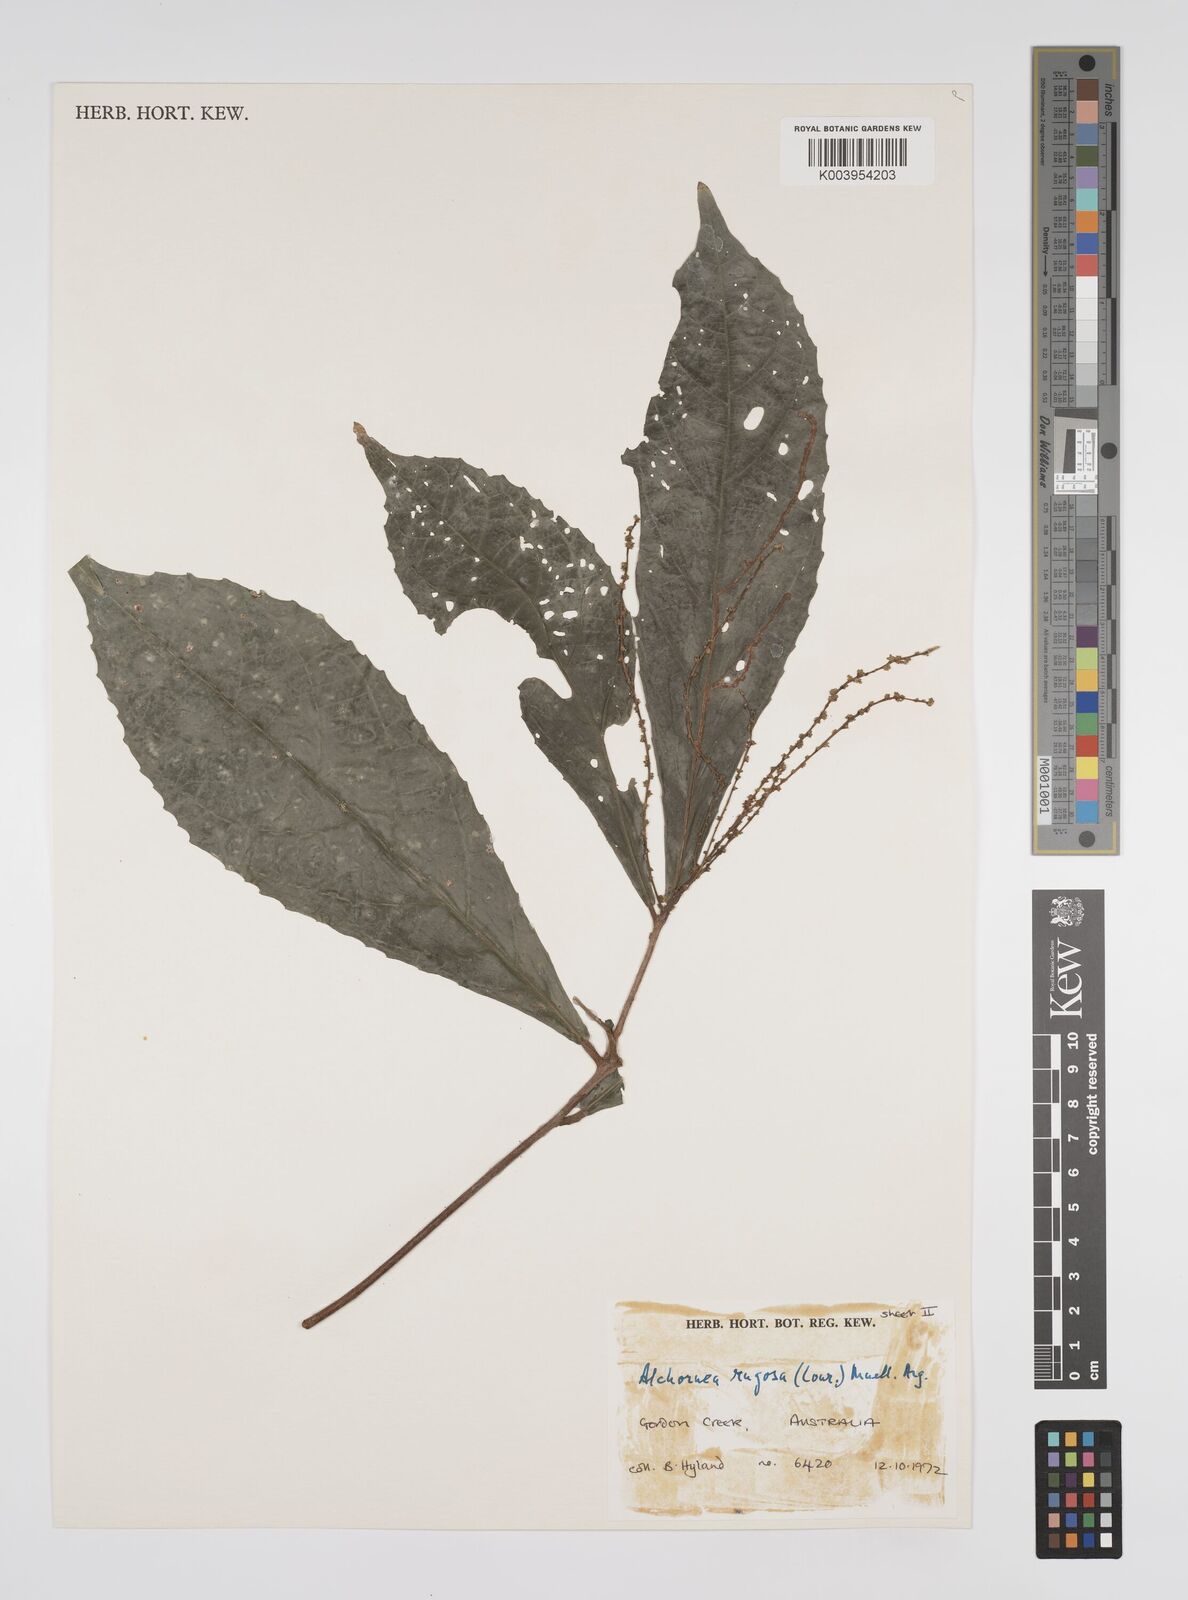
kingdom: Plantae
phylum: Tracheophyta
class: Magnoliopsida
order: Malpighiales
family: Euphorbiaceae
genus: Alchornea
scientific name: Alchornea rugosa
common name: Alchorntree
